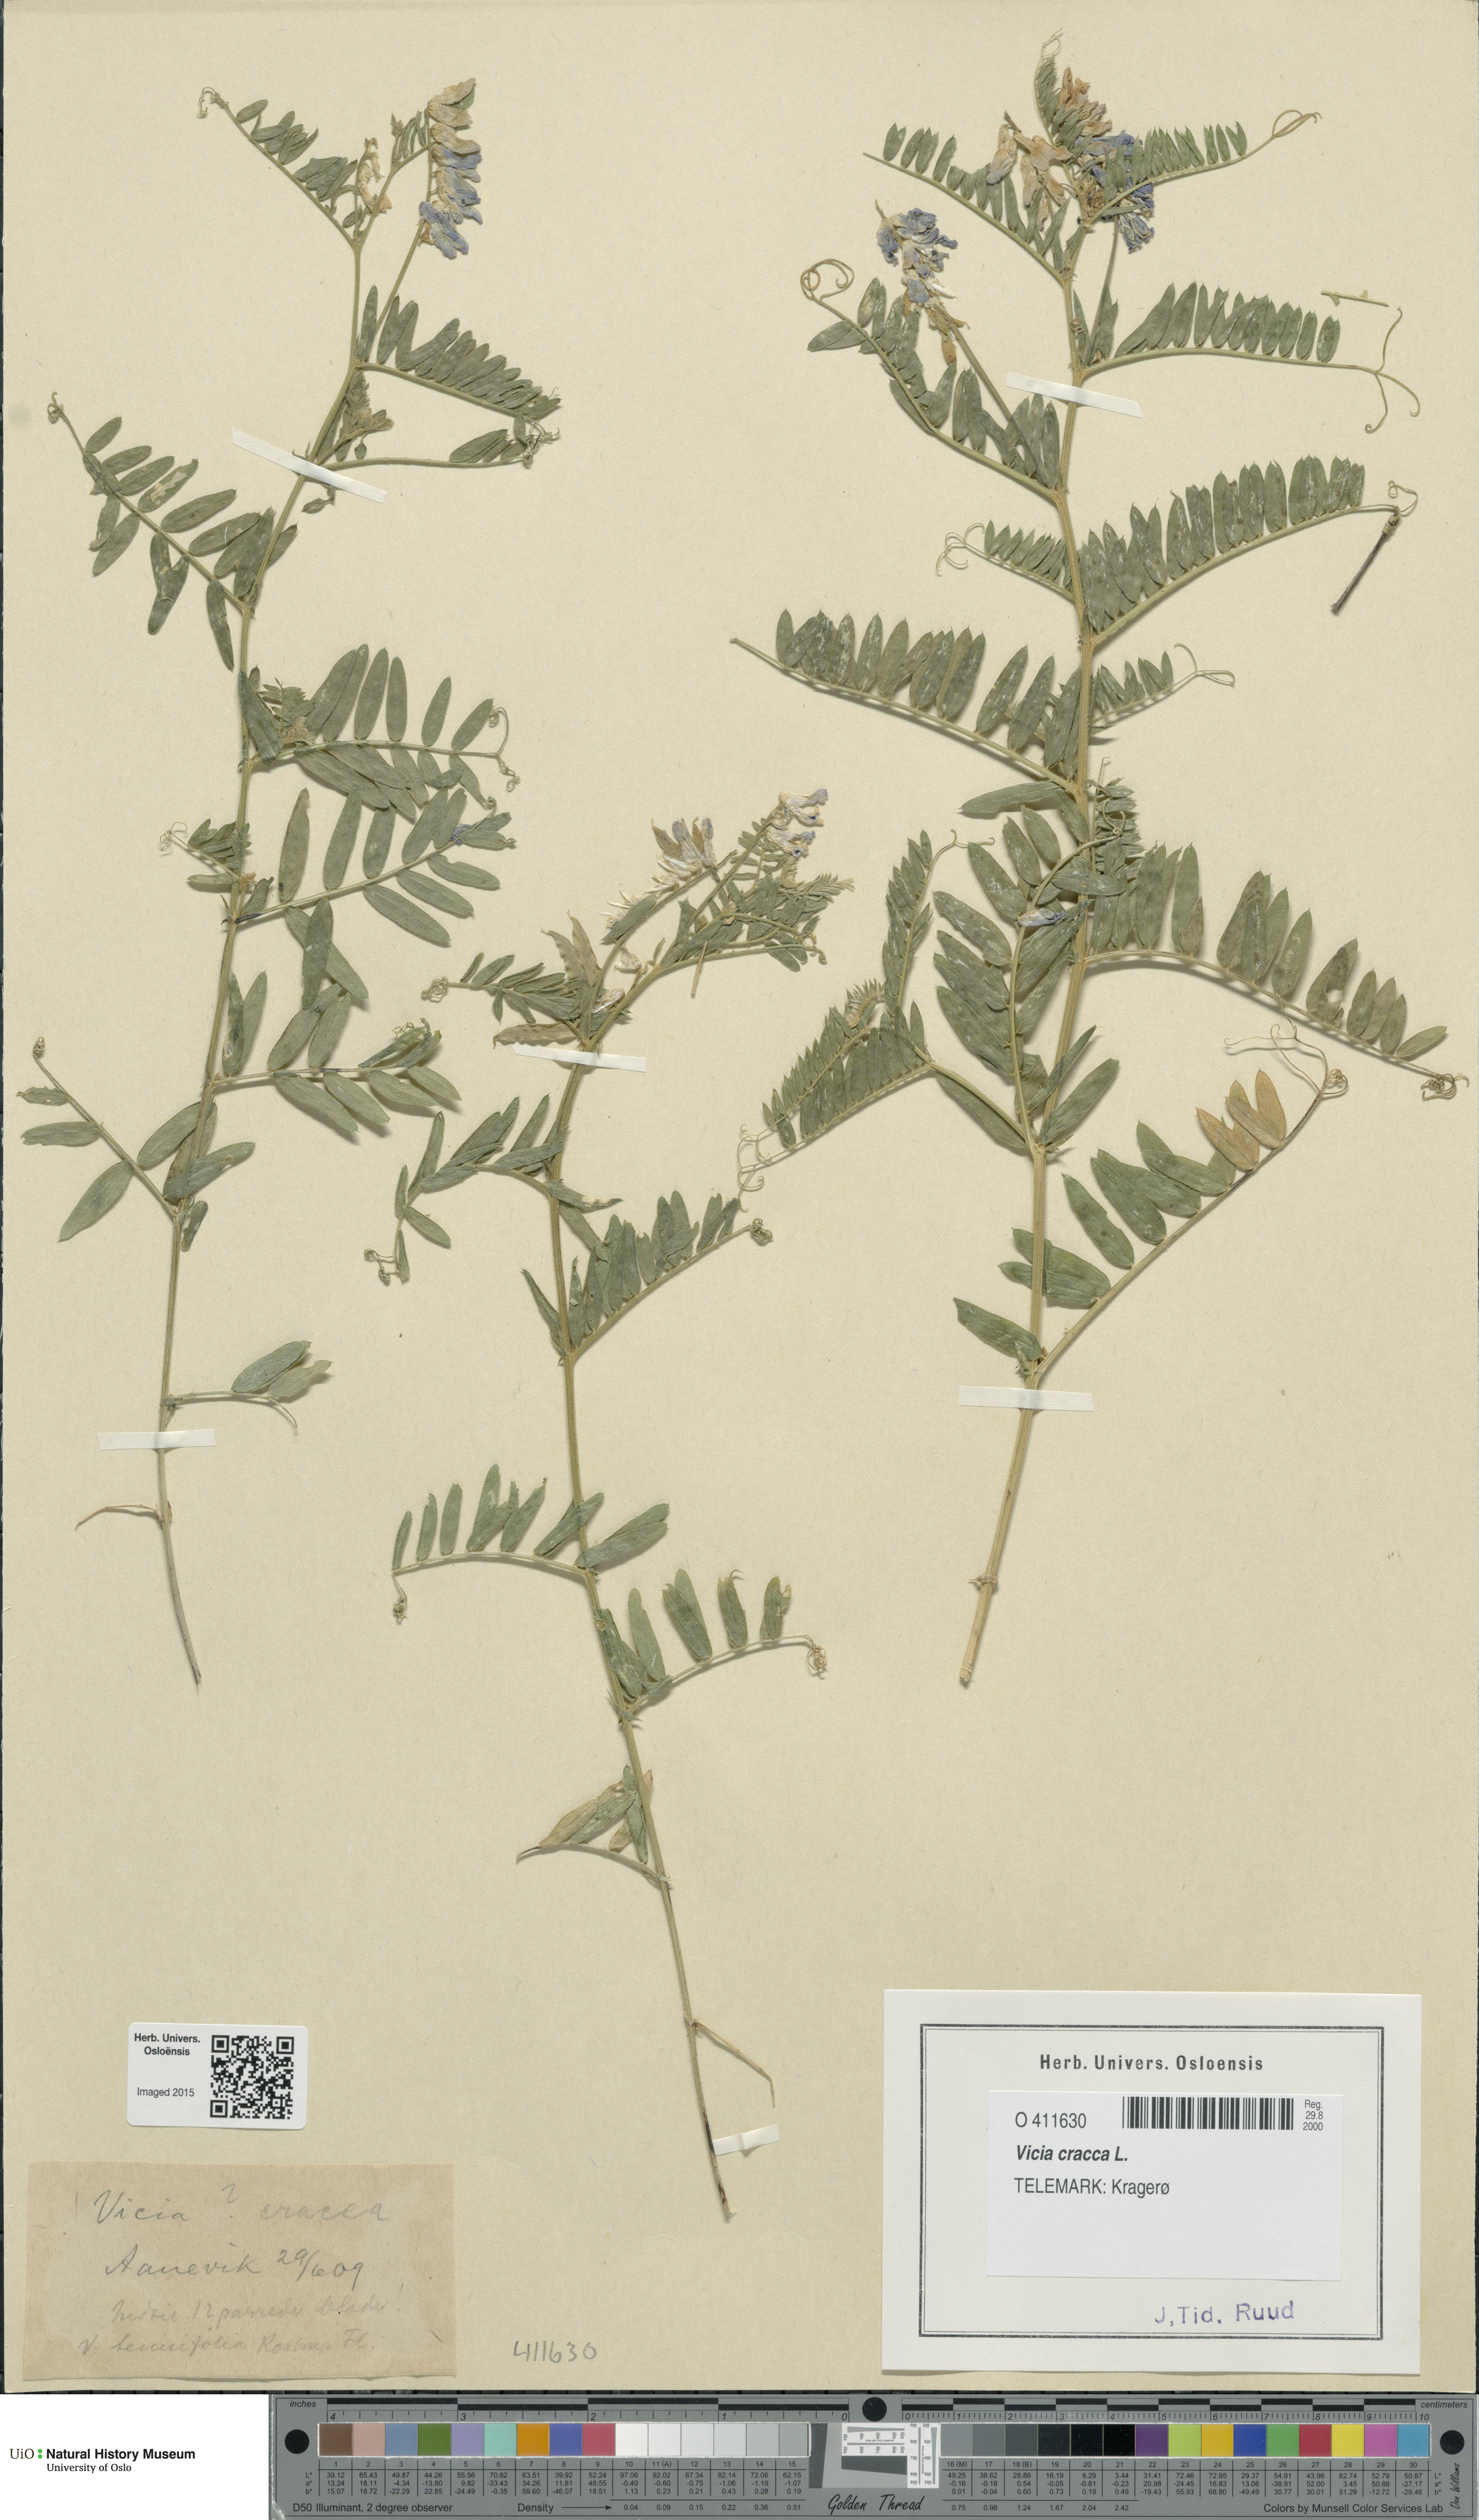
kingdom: Plantae
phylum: Tracheophyta
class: Magnoliopsida
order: Fabales
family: Fabaceae
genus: Vicia
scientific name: Vicia cracca
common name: Bird vetch
